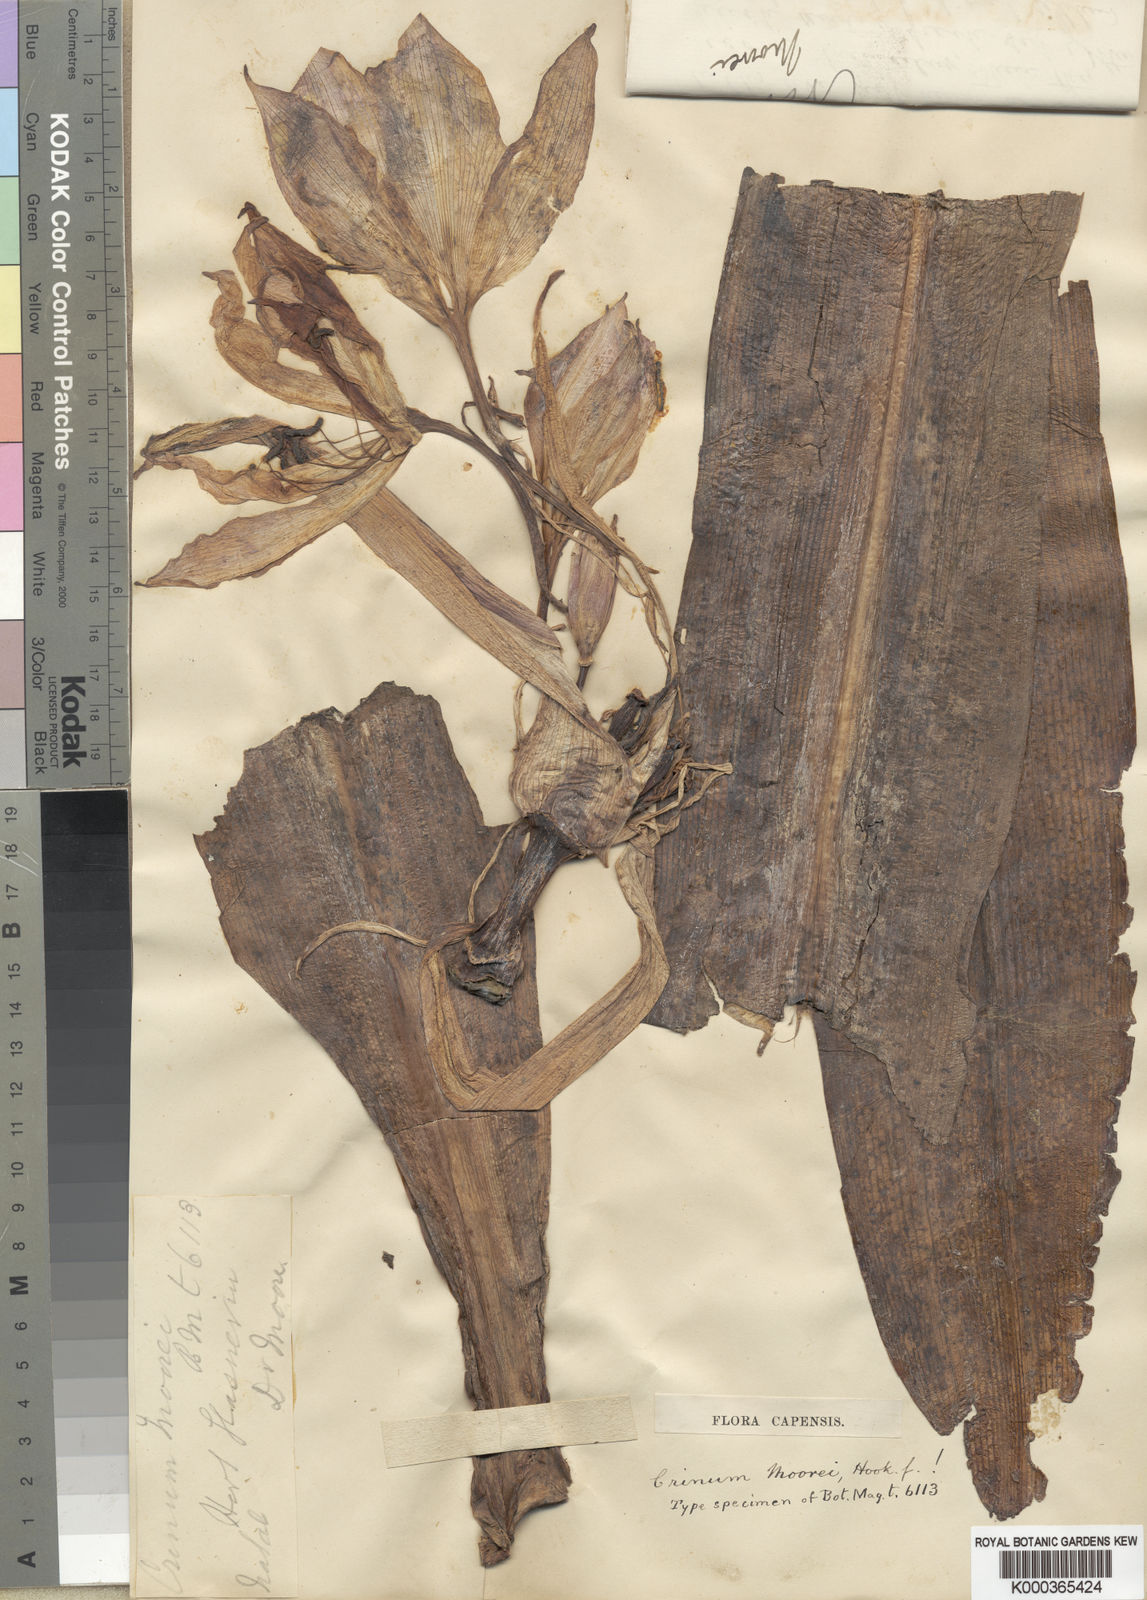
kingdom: Plantae
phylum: Tracheophyta
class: Liliopsida
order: Asparagales
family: Amaryllidaceae
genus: Crinum
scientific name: Crinum moorei
